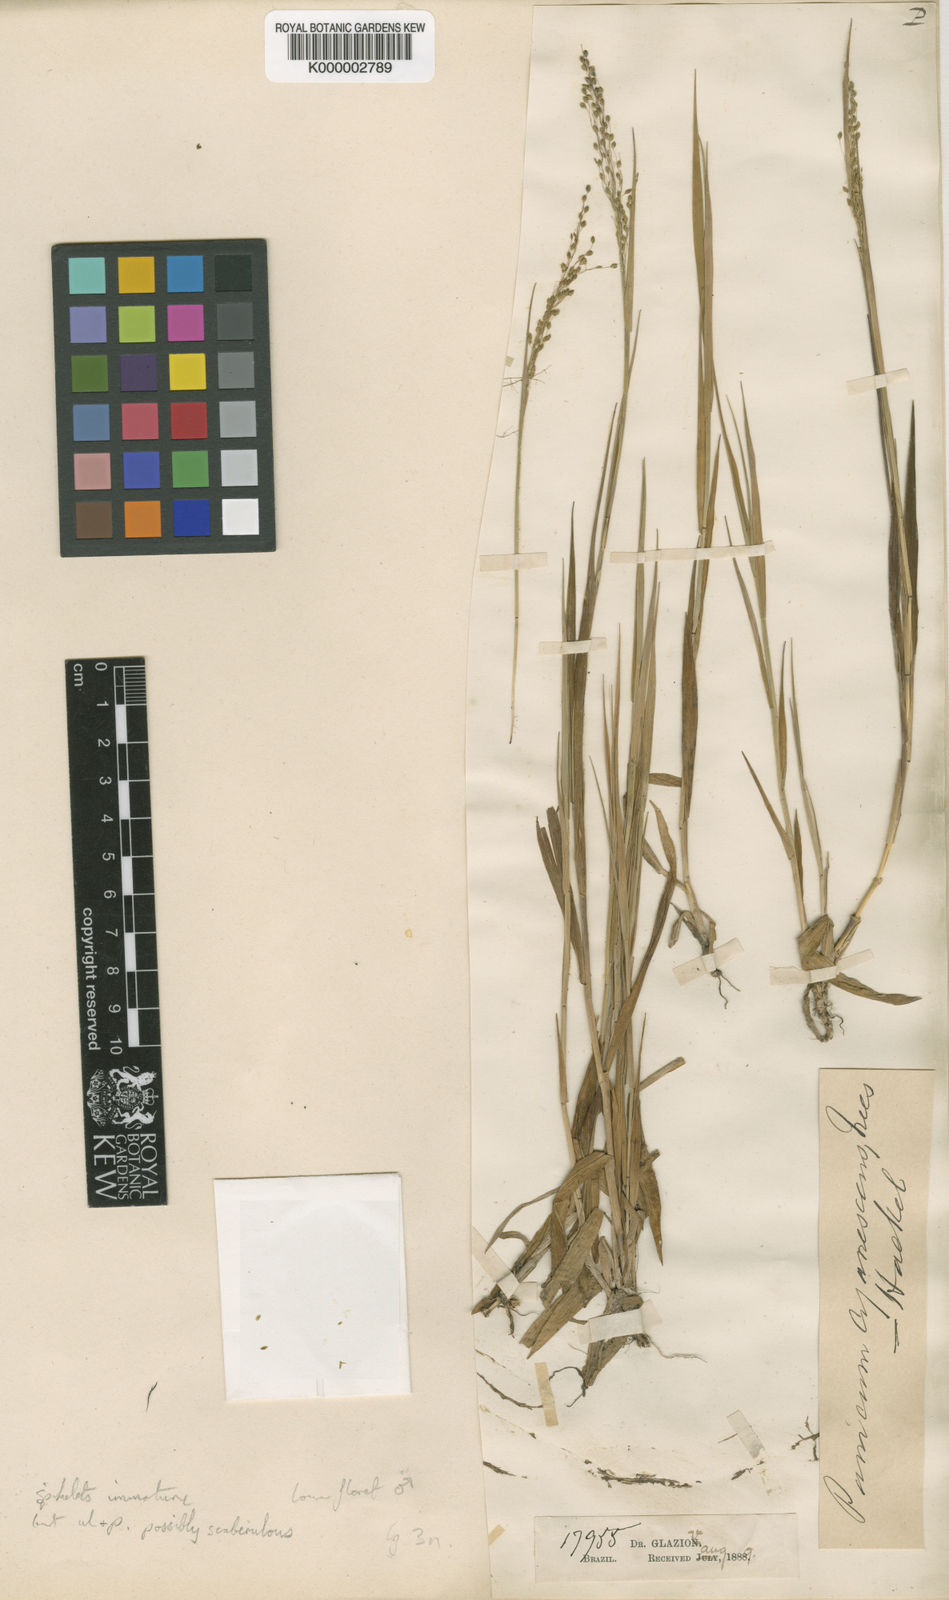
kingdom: Plantae
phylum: Tracheophyta
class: Liliopsida
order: Poales
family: Poaceae
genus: Trichanthecium
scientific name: Trichanthecium wettsteinii
